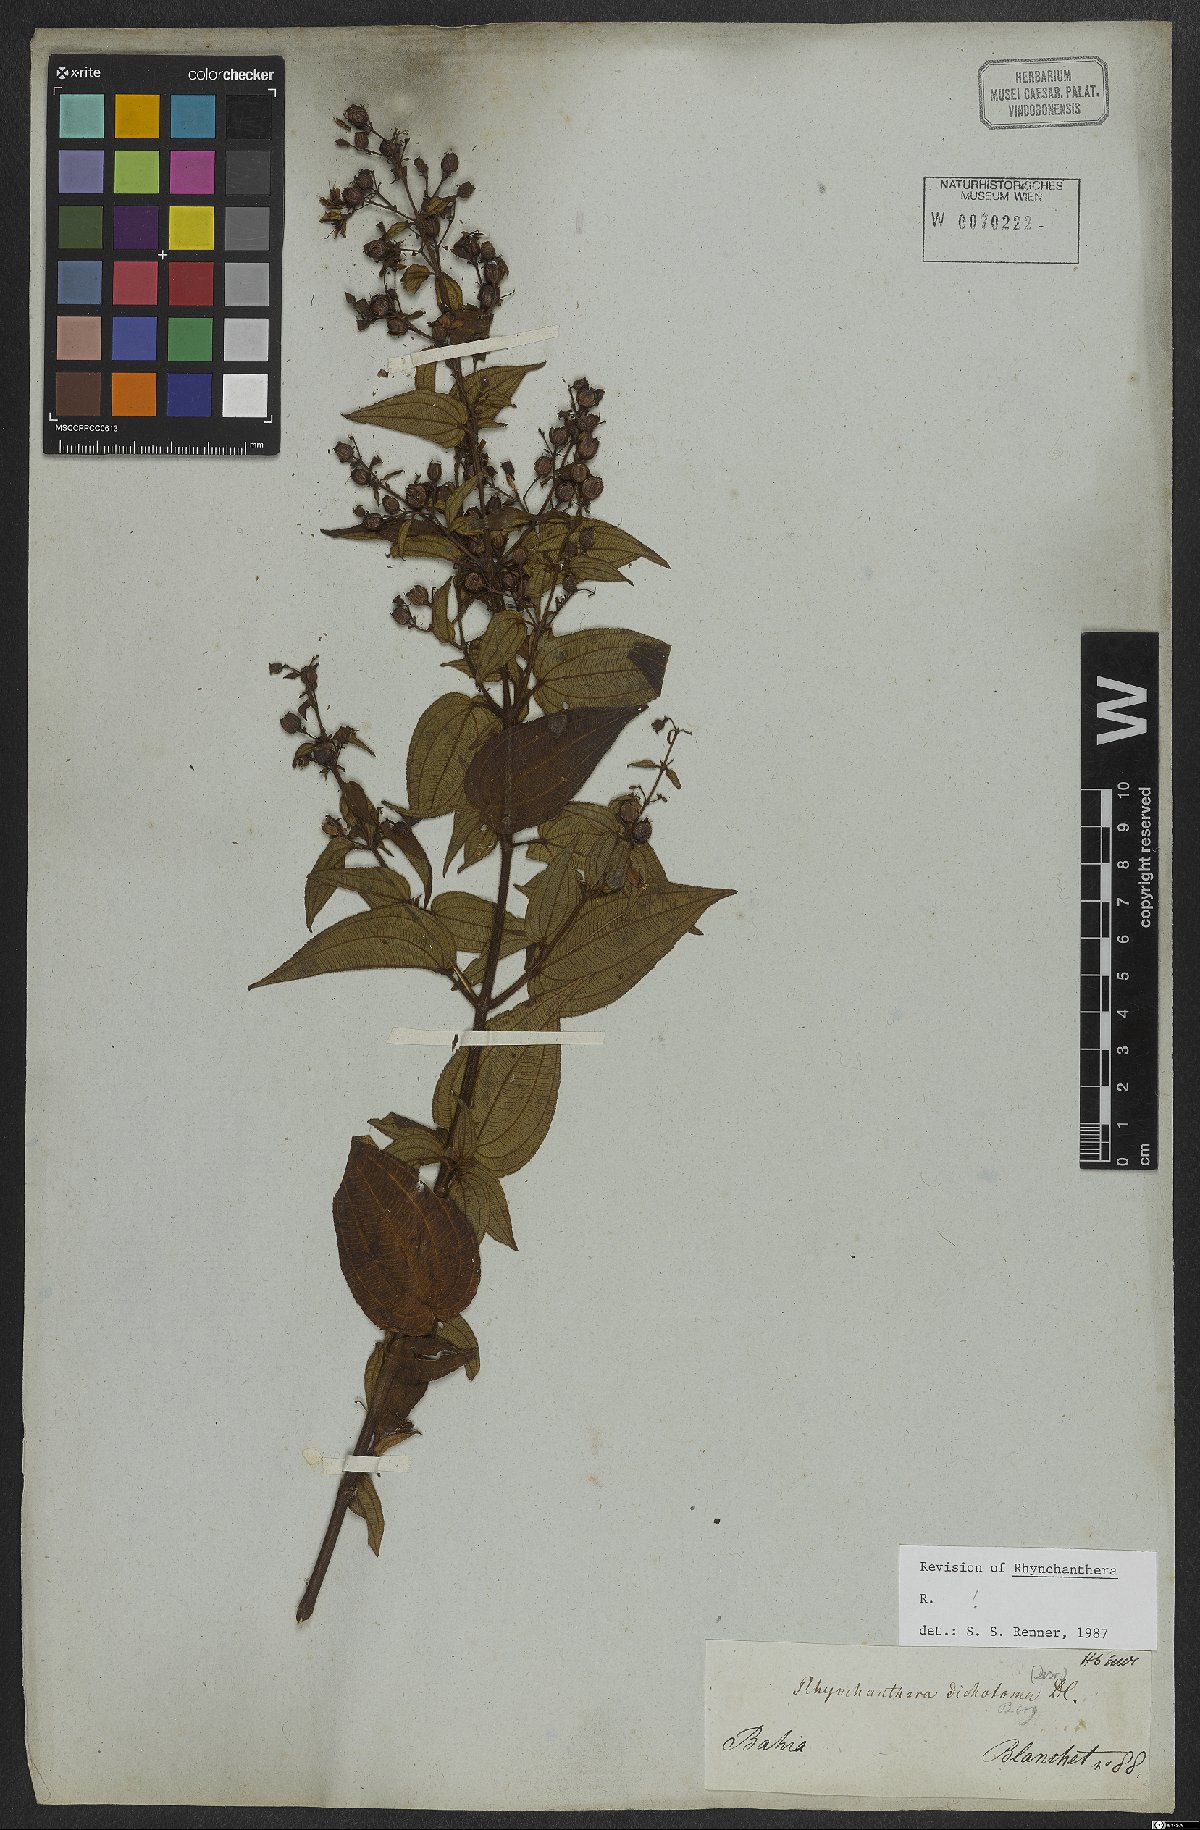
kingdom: Plantae
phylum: Tracheophyta
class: Magnoliopsida
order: Myrtales
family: Melastomataceae
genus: Rhynchanthera
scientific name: Rhynchanthera dichotoma
